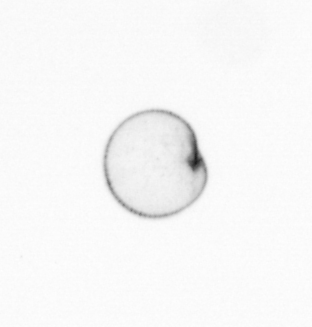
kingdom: Chromista
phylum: Myzozoa
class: Dinophyceae
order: Noctilucales
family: Noctilucaceae
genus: Noctiluca
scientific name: Noctiluca scintillans
